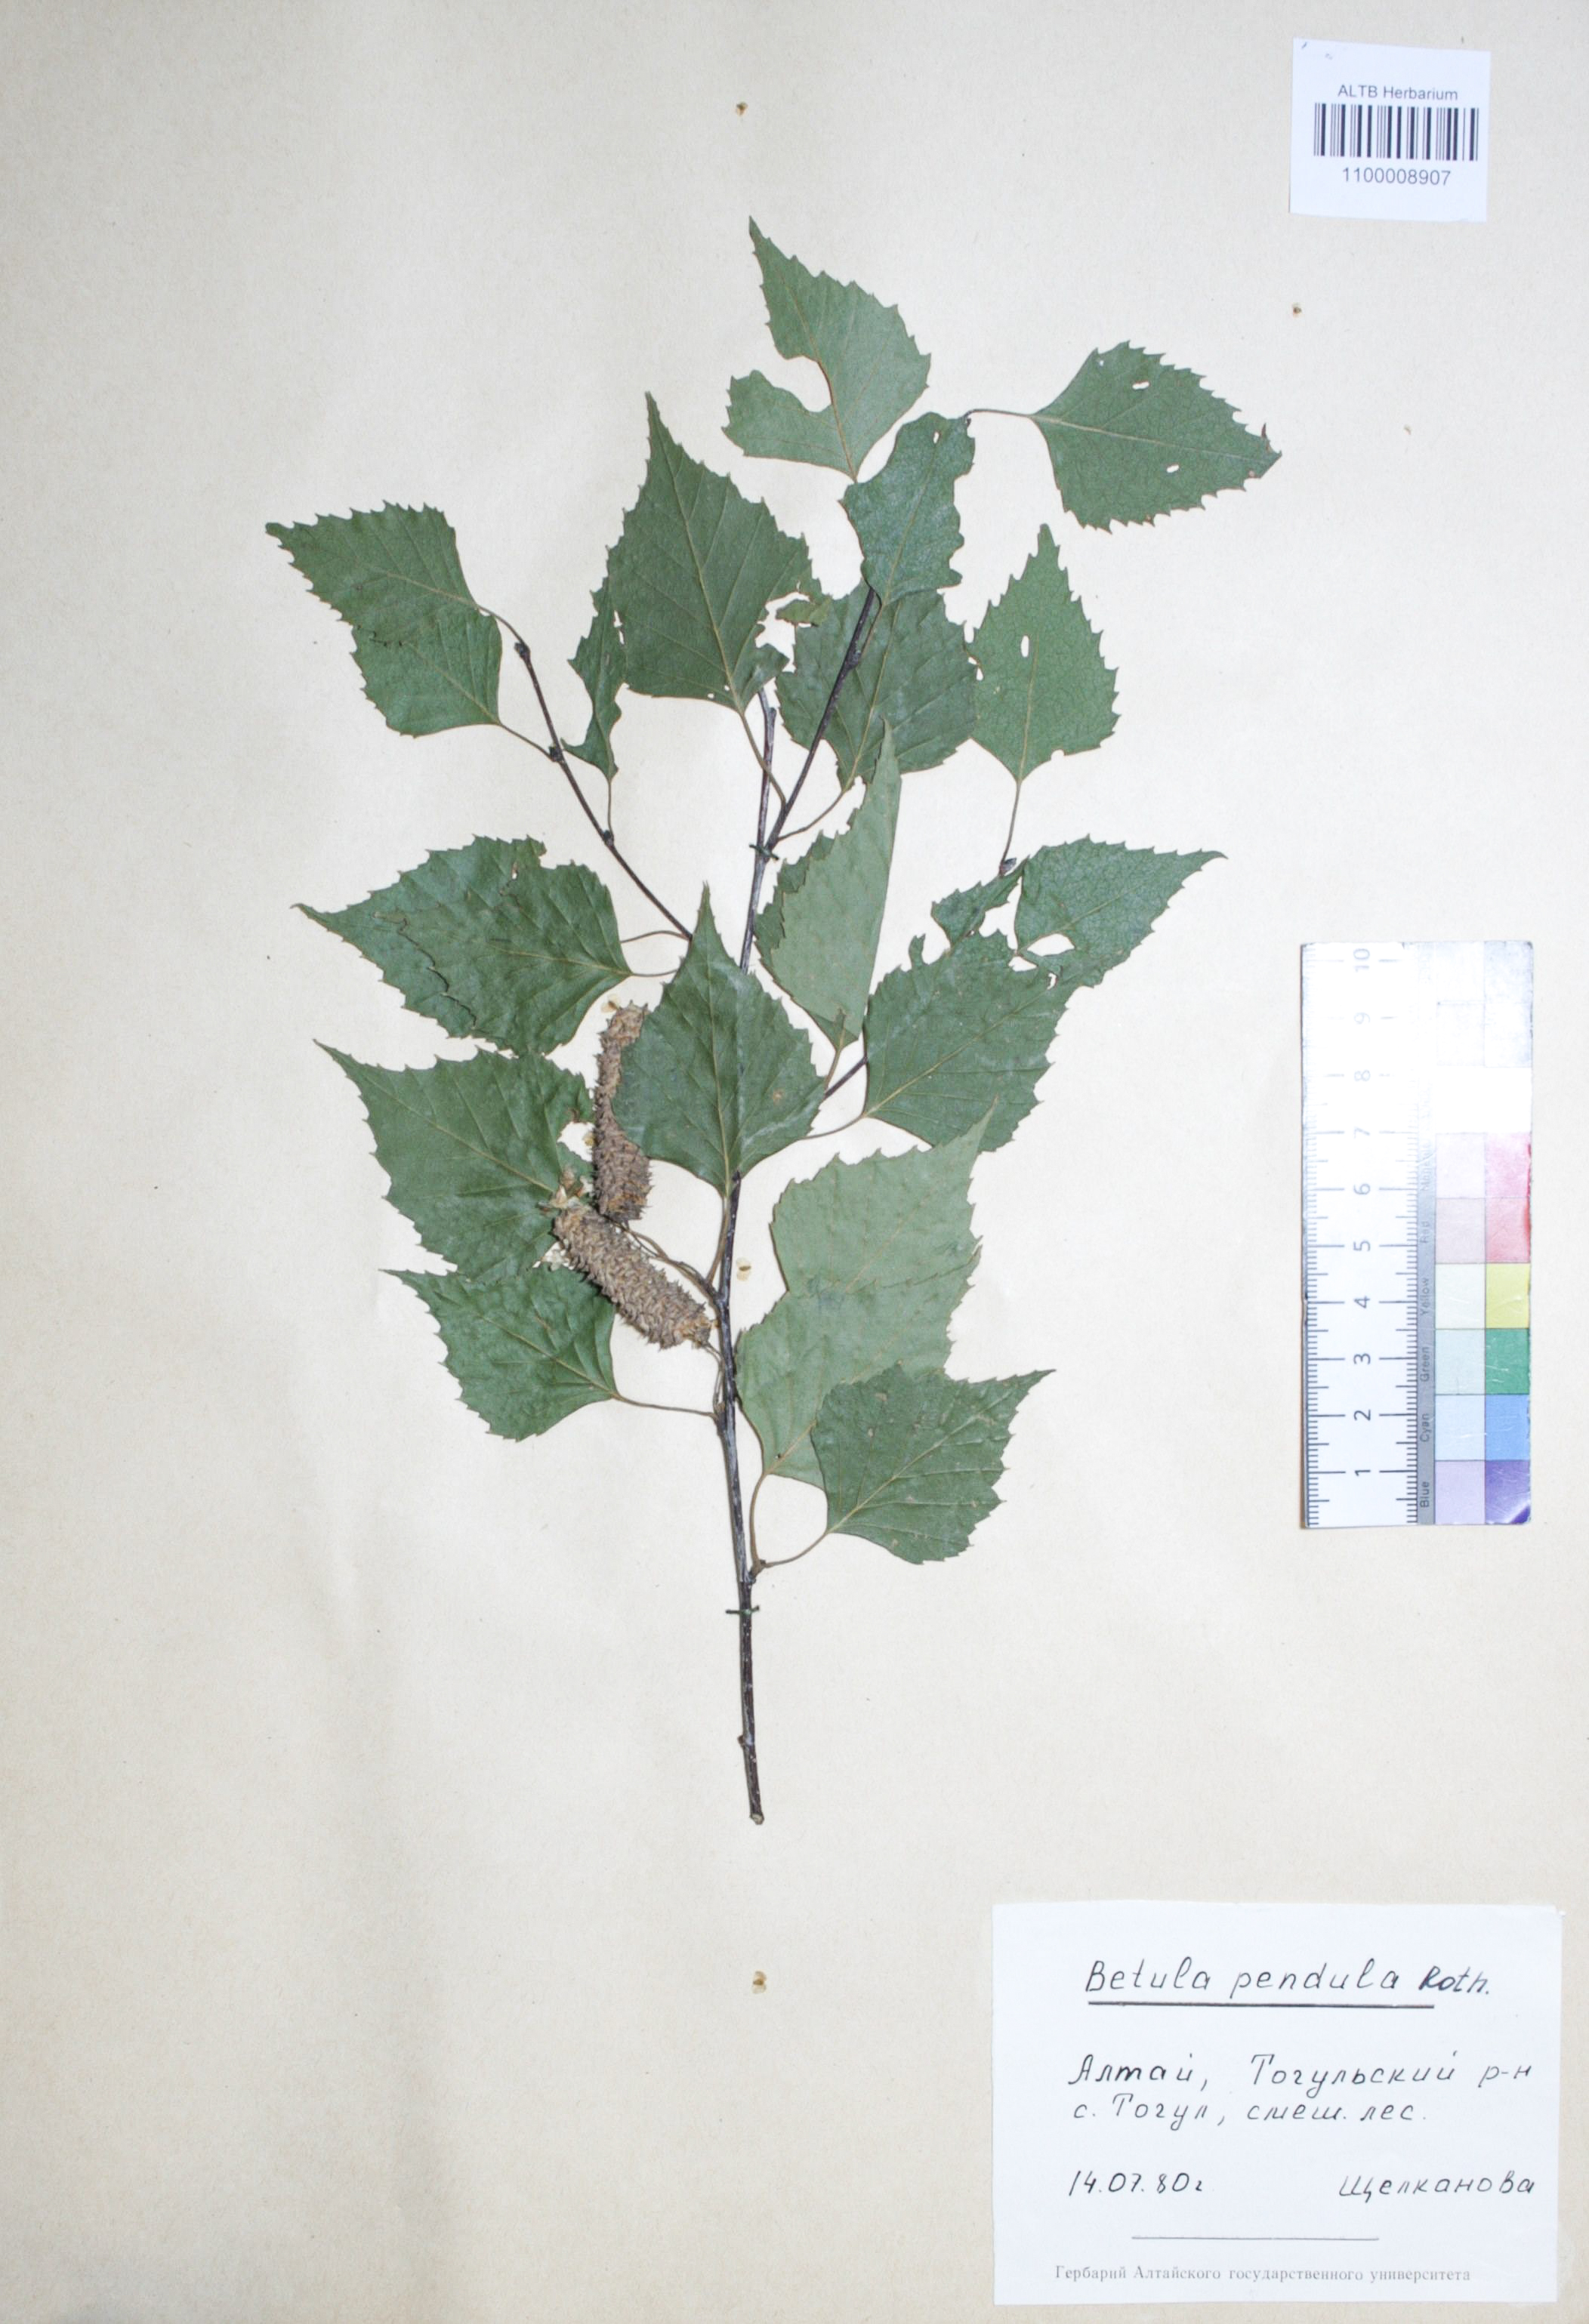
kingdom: Plantae
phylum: Tracheophyta
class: Magnoliopsida
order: Fagales
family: Betulaceae
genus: Betula
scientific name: Betula pendula
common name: Silver birch
